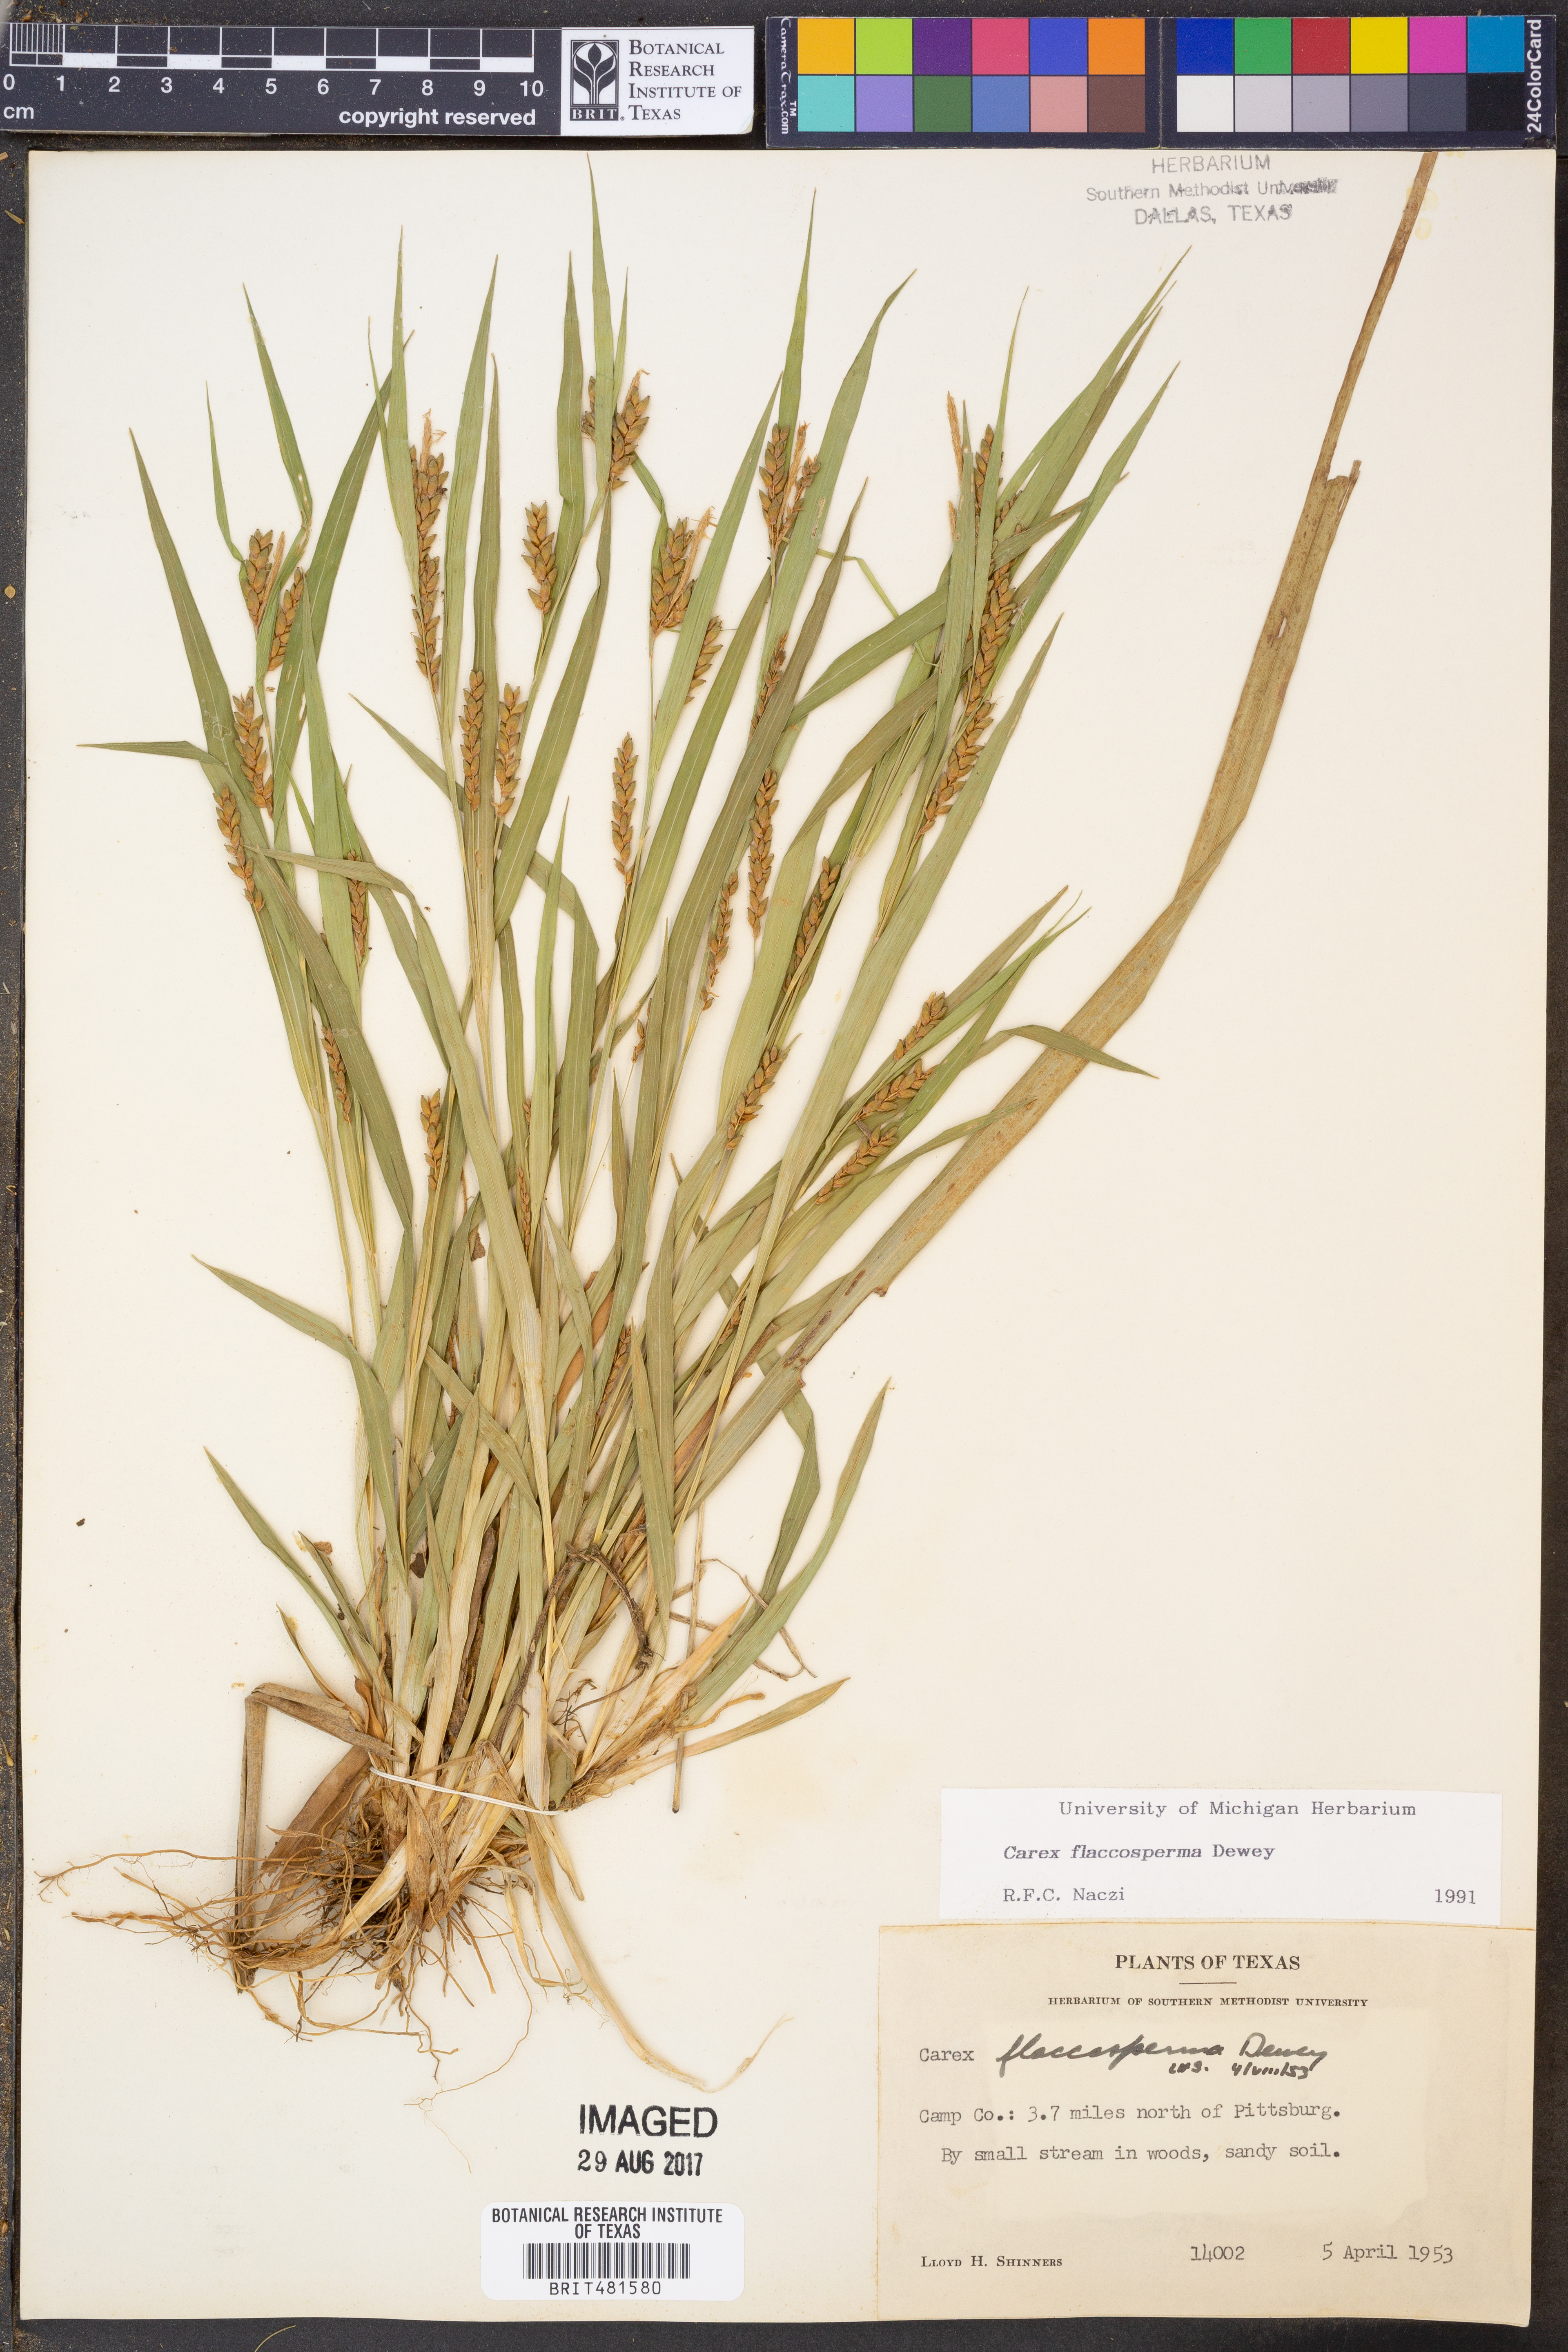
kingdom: Plantae
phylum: Tracheophyta
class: Liliopsida
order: Poales
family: Cyperaceae
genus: Carex
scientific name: Carex flaccosperma
